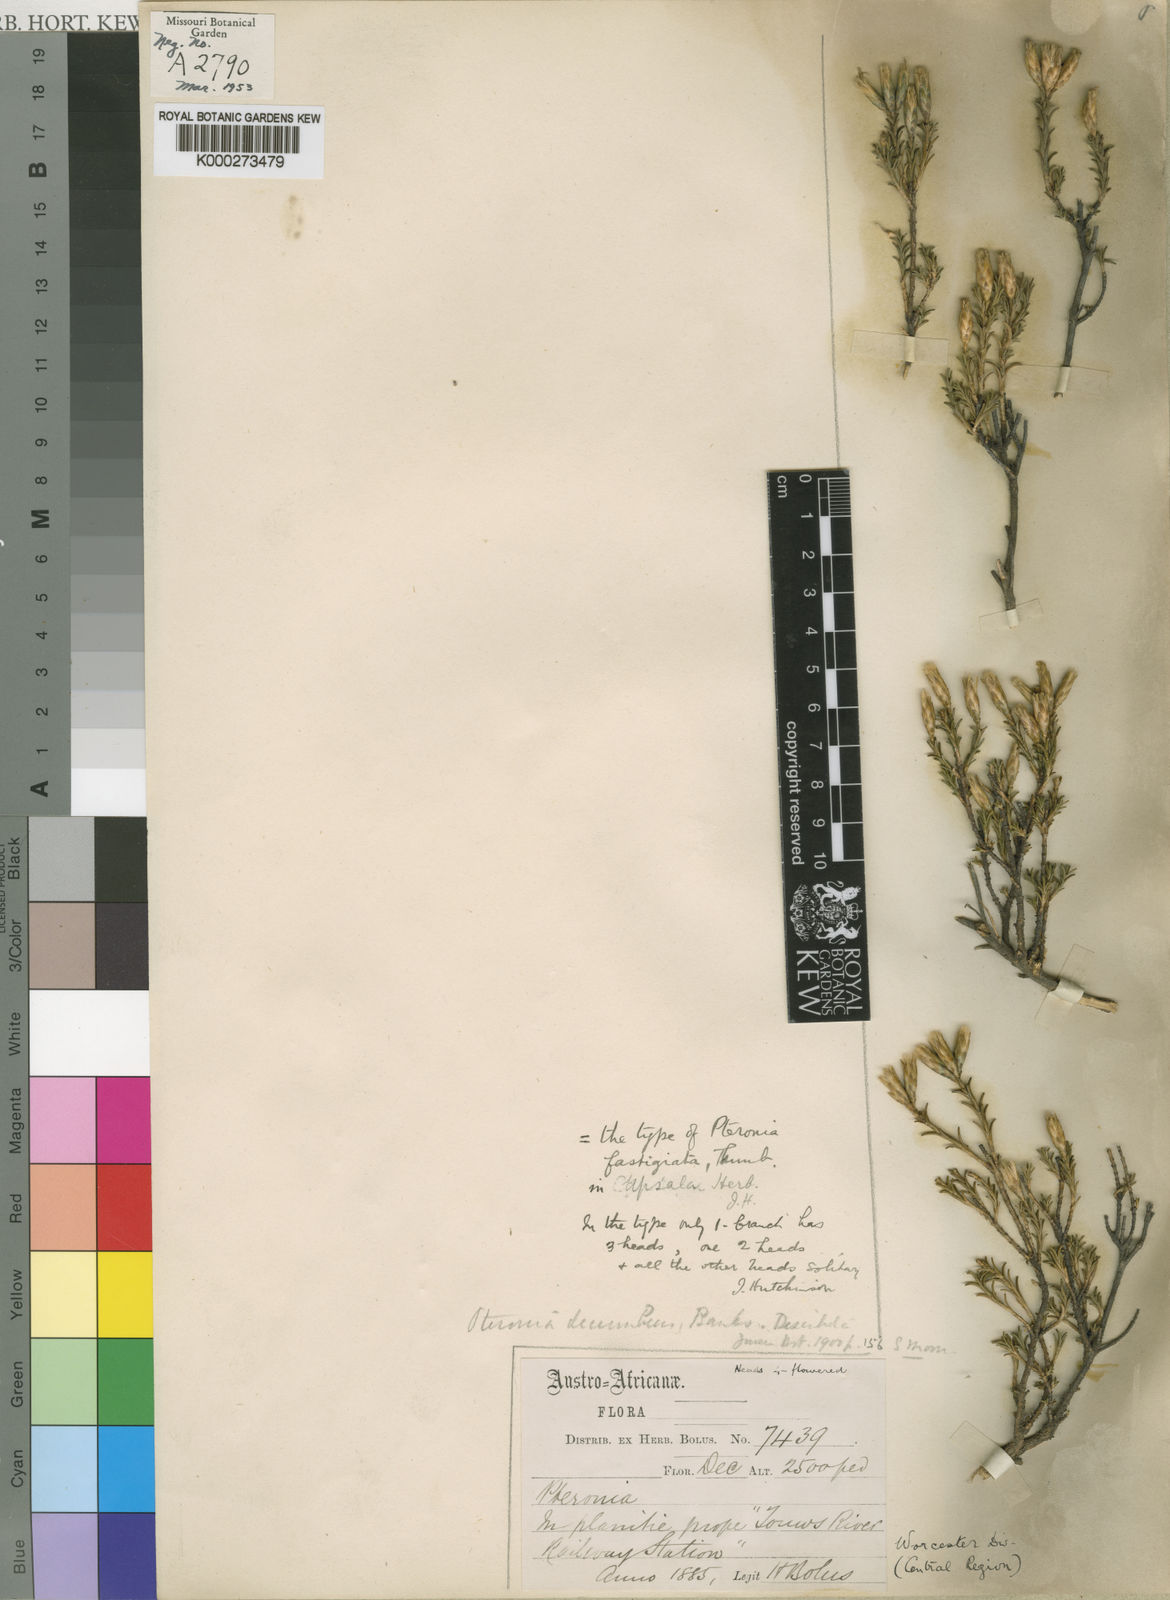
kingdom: Plantae
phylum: Tracheophyta
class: Magnoliopsida
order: Asterales
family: Asteraceae
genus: Pteronia
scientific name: Pteronia fasciculata
